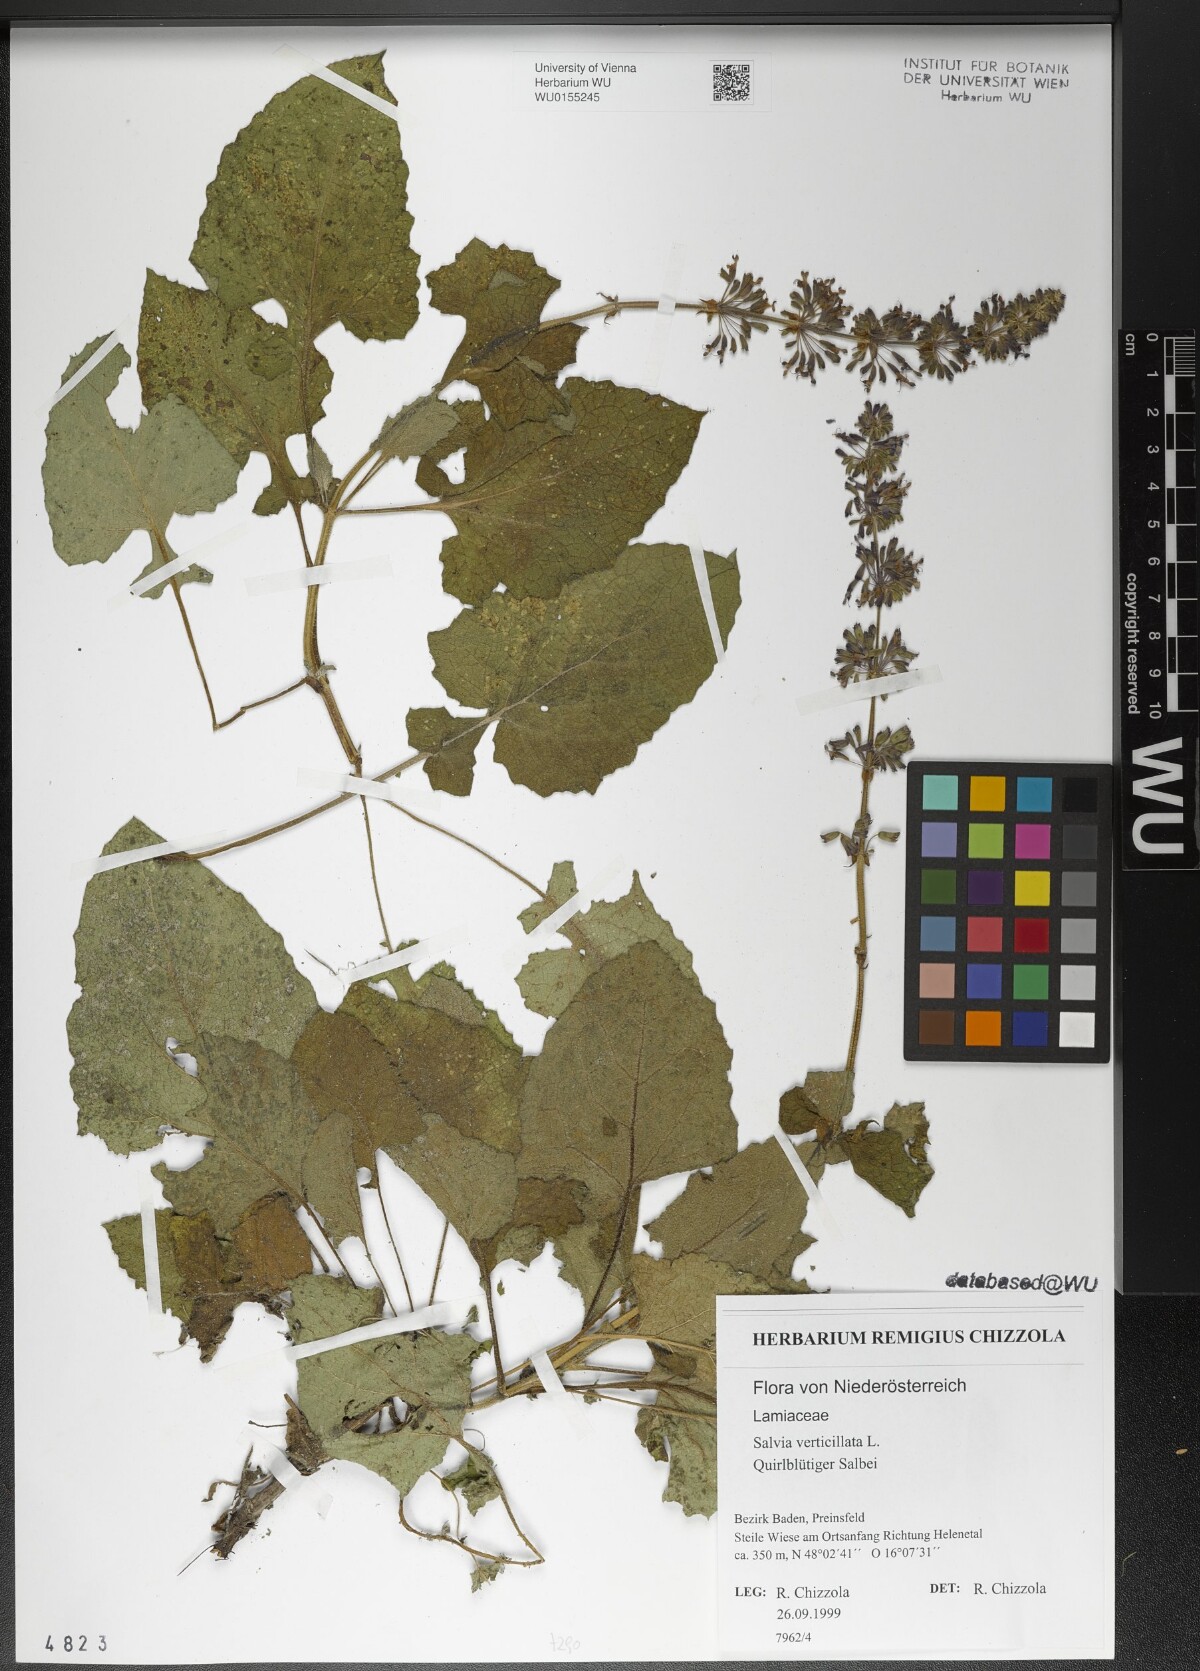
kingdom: Plantae
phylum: Tracheophyta
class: Magnoliopsida
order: Lamiales
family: Lamiaceae
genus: Salvia
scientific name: Salvia verticillata
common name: Whorled clary
